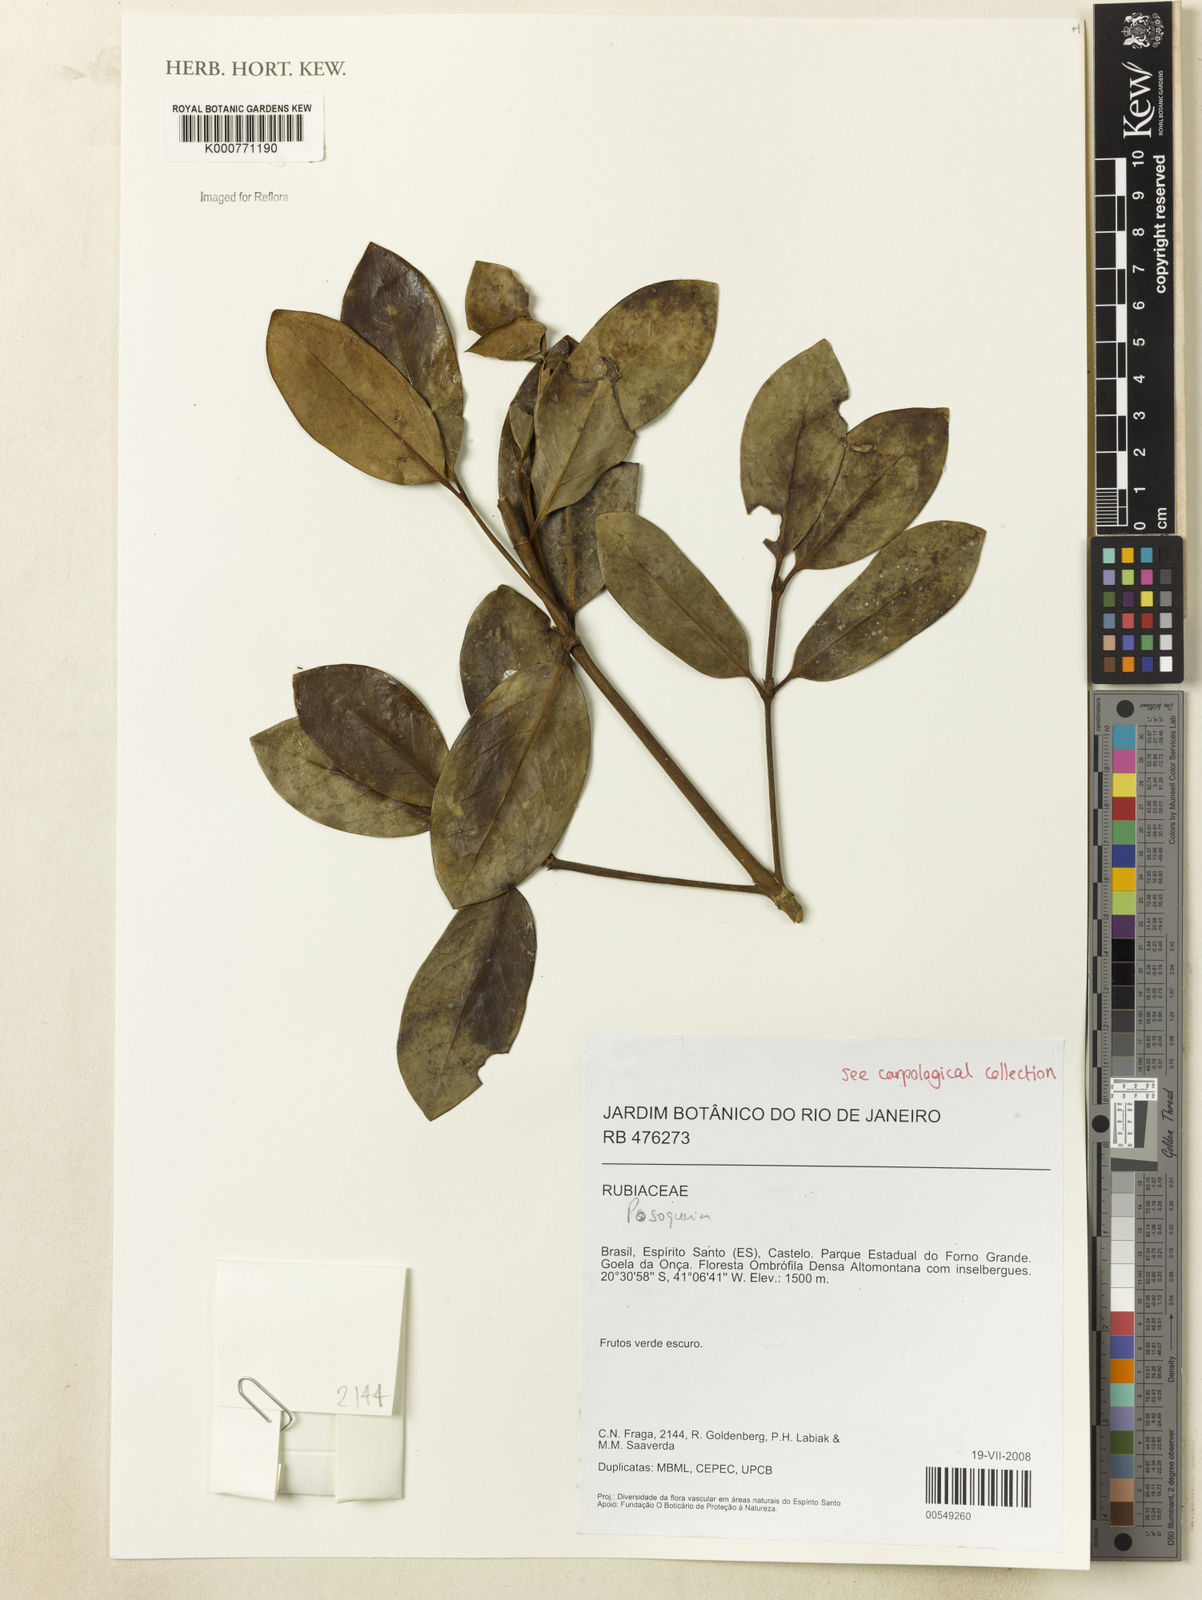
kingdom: Plantae
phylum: Tracheophyta
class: Magnoliopsida
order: Gentianales
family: Rubiaceae
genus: Posoqueria
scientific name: Posoqueria
